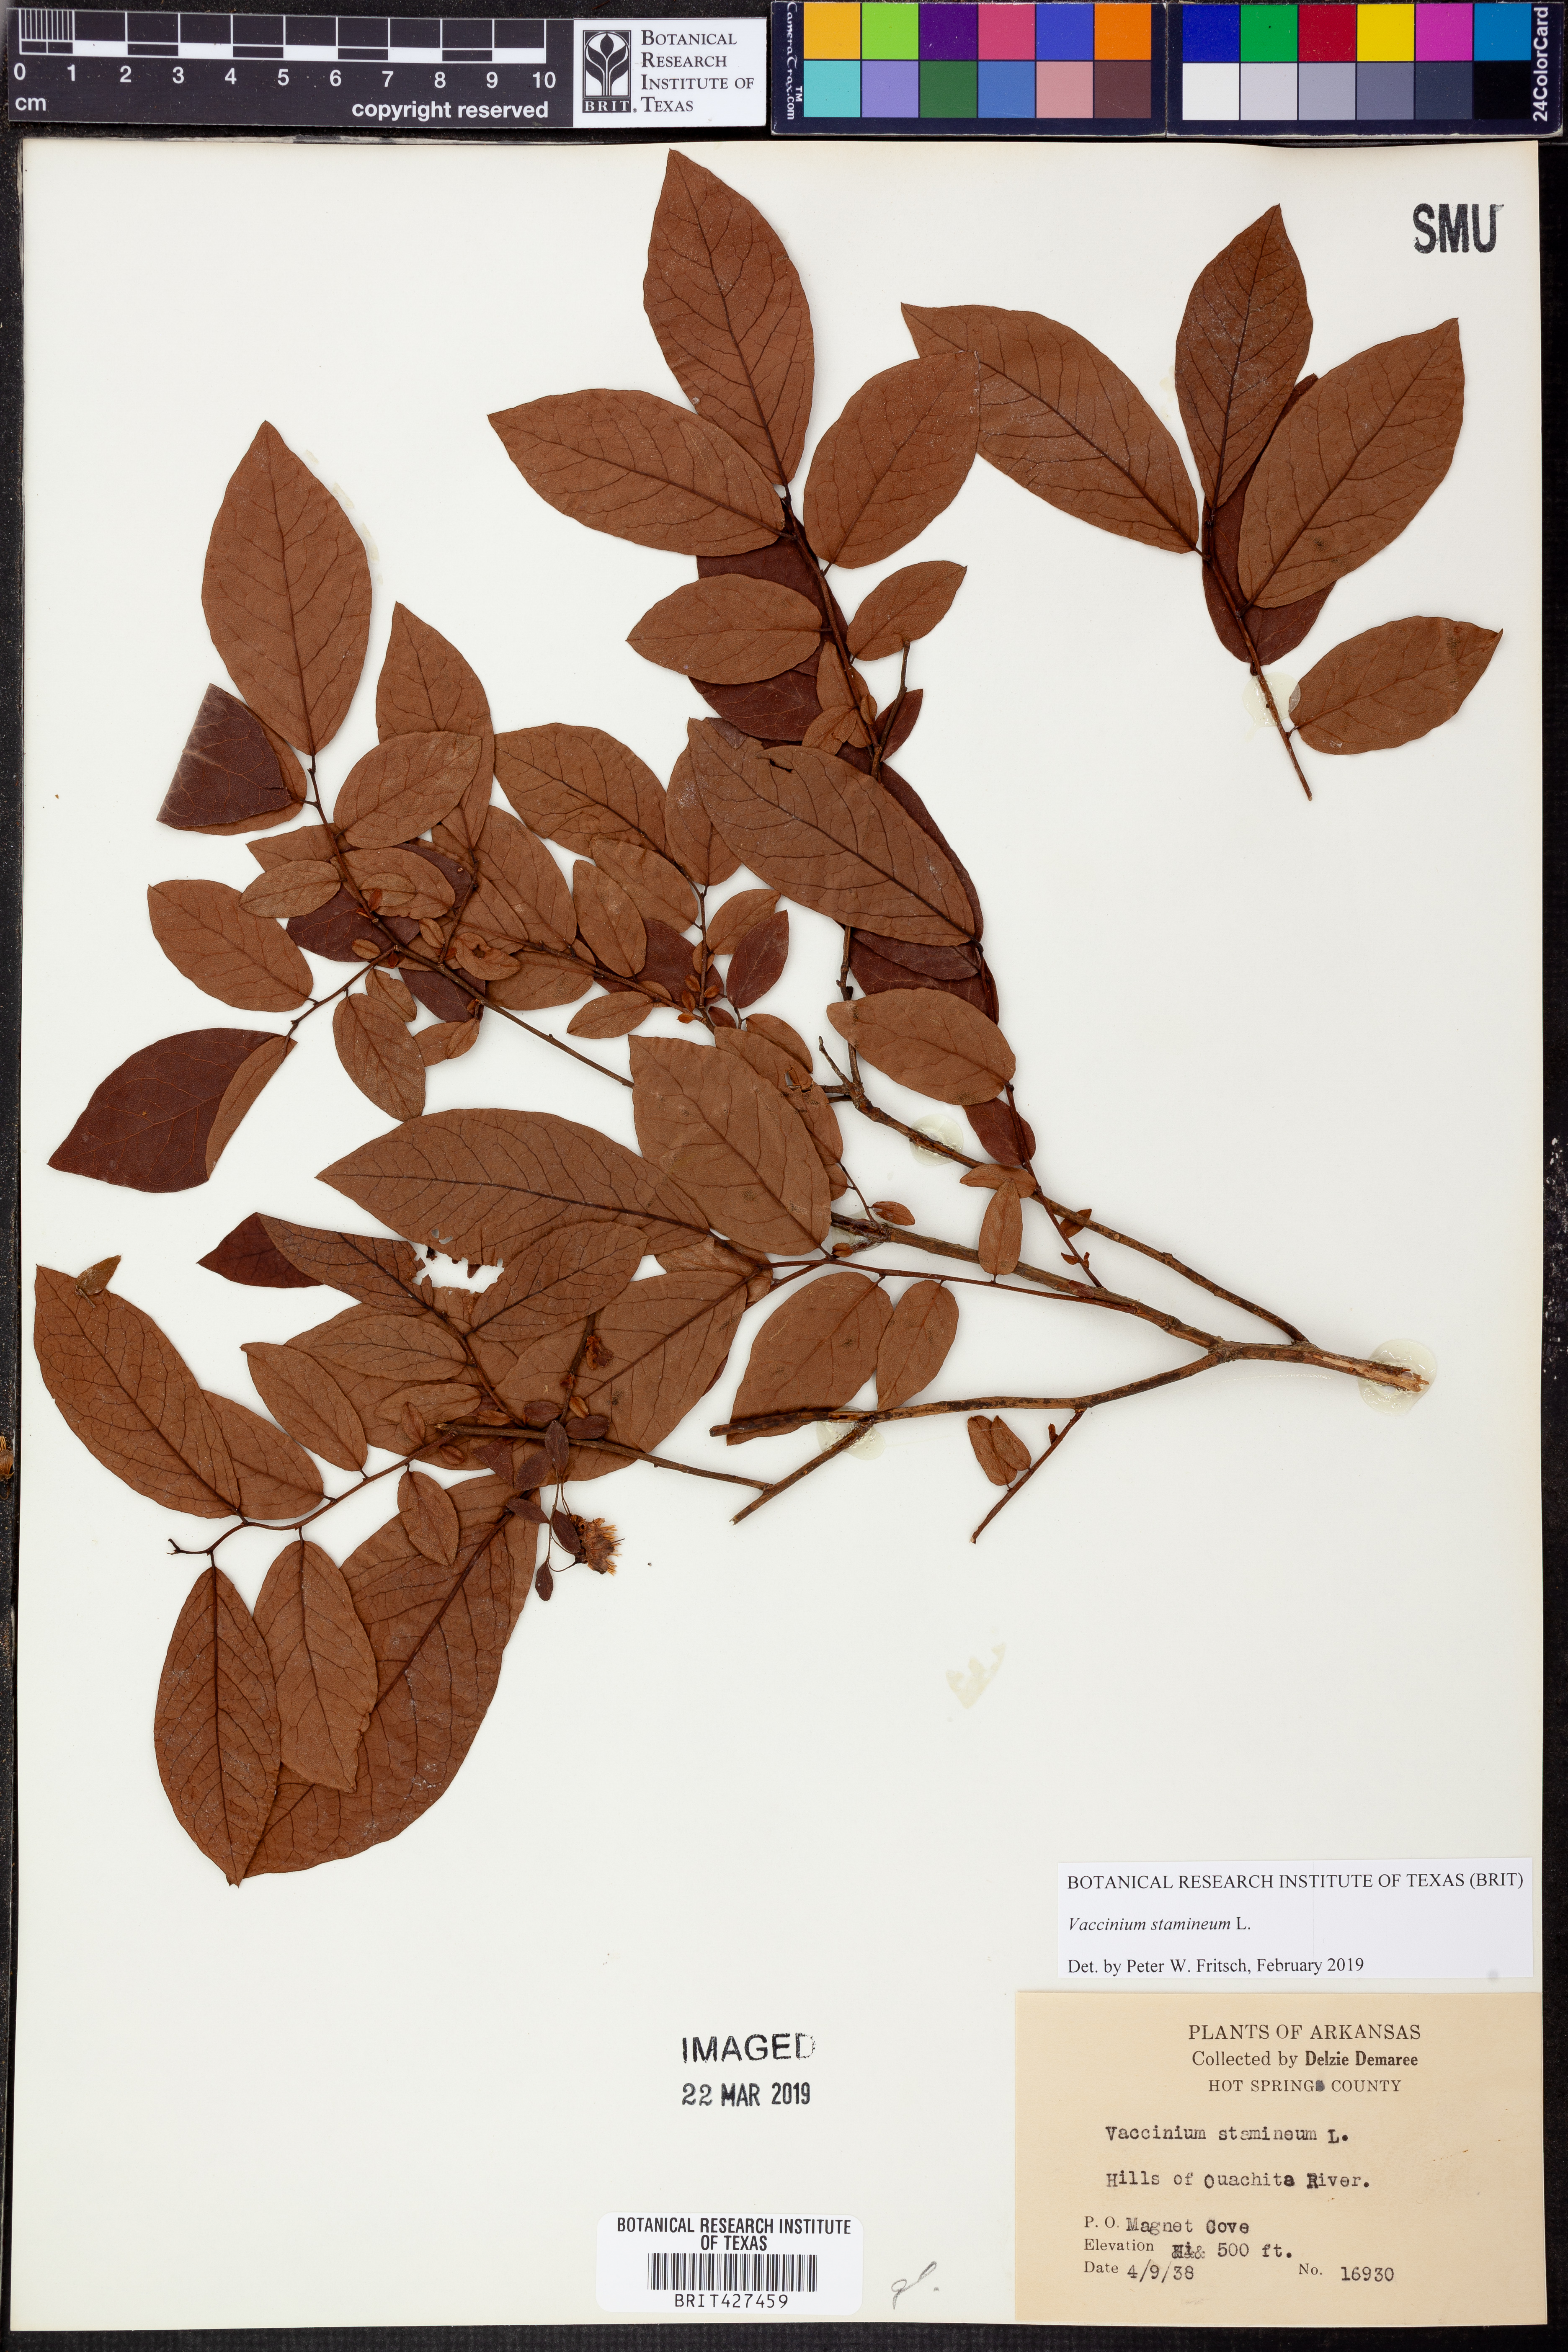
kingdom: Plantae
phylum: Tracheophyta
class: Magnoliopsida
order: Ericales
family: Ericaceae
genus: Vaccinium
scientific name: Vaccinium stamineum
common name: Deerberry
